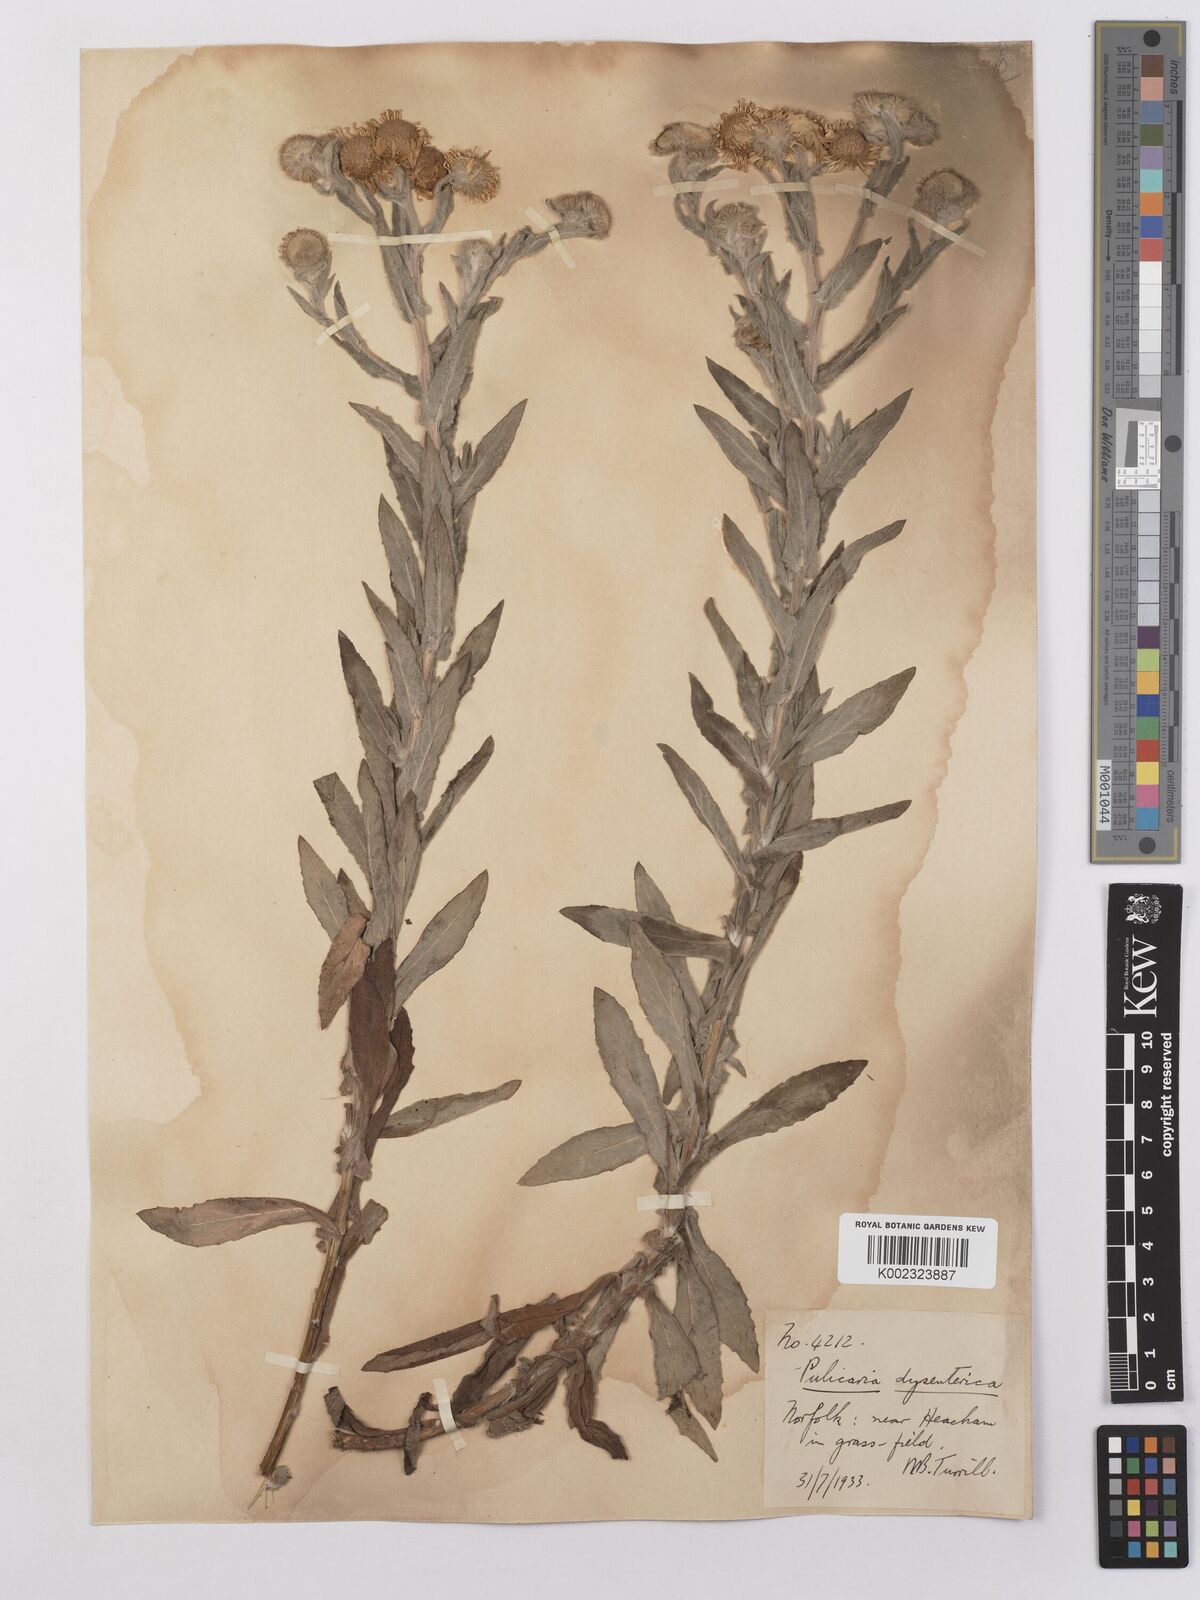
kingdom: Plantae
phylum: Tracheophyta
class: Magnoliopsida
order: Asterales
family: Asteraceae
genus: Pulicaria
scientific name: Pulicaria dysenterica
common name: Common fleabane
